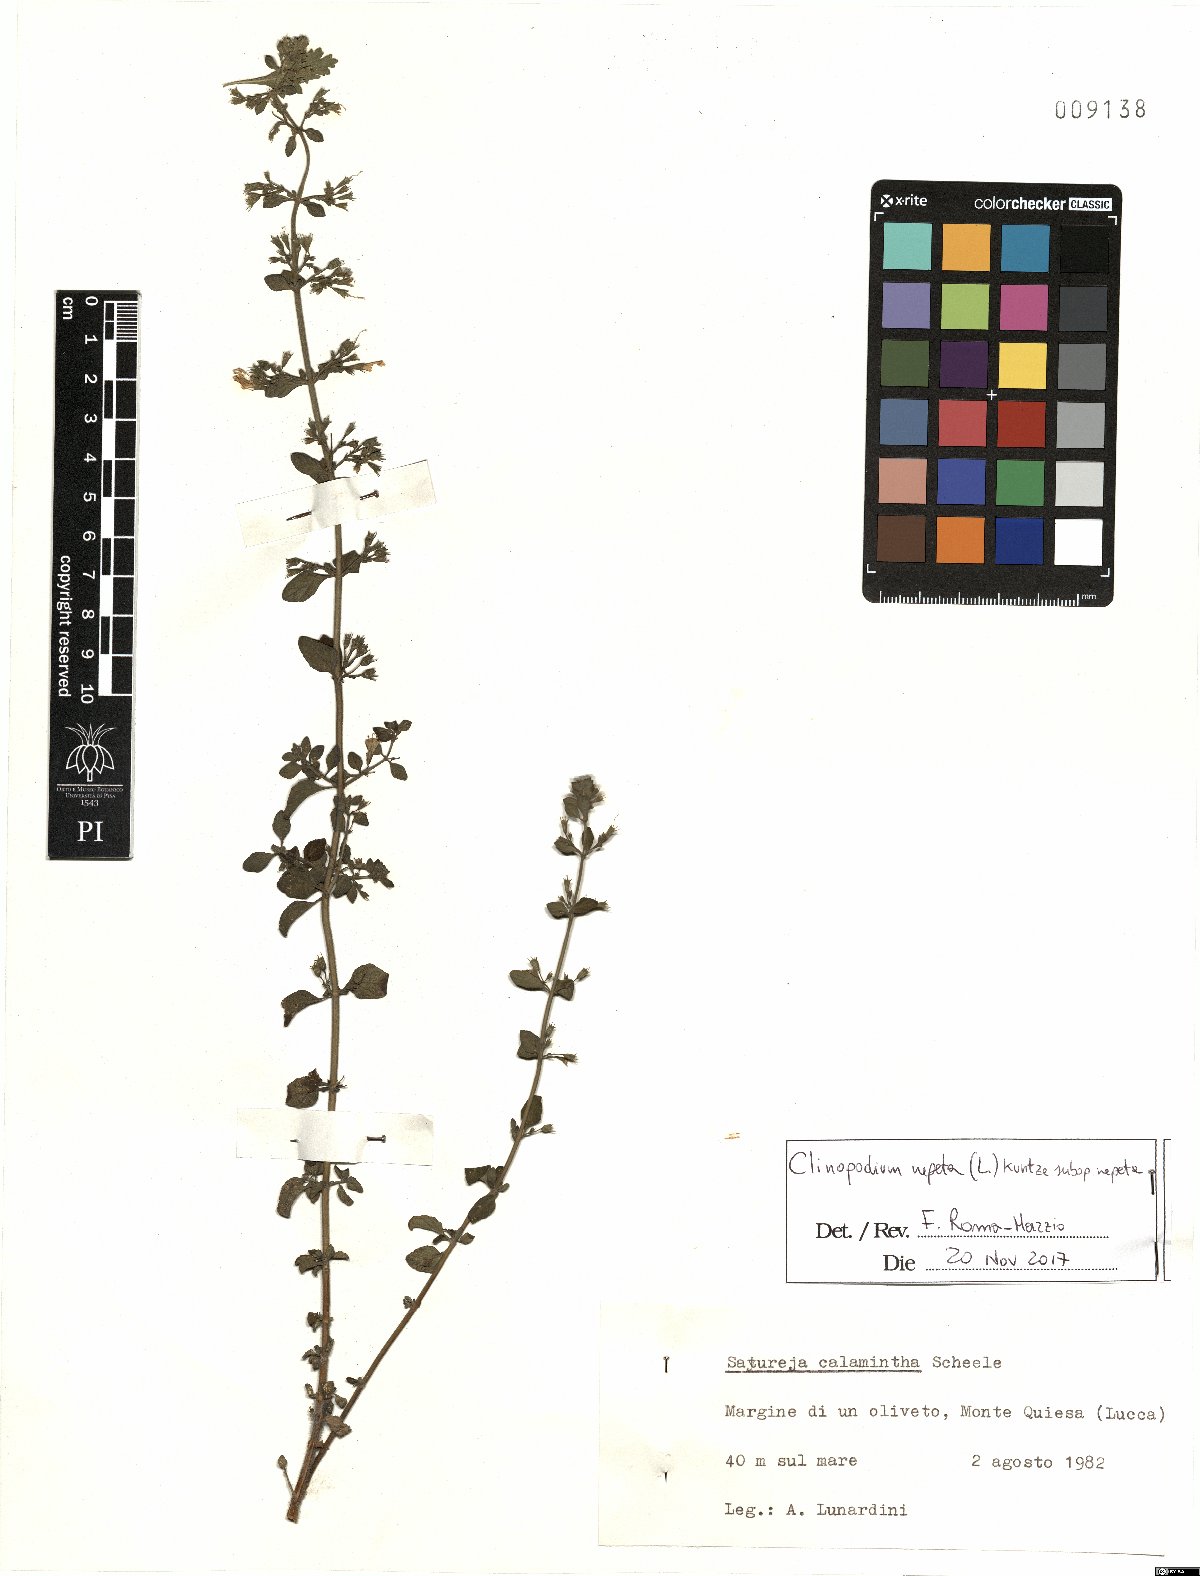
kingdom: Plantae
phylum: Tracheophyta
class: Magnoliopsida
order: Lamiales
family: Lamiaceae
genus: Clinopodium
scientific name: Clinopodium nepeta
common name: Lesser calamint
